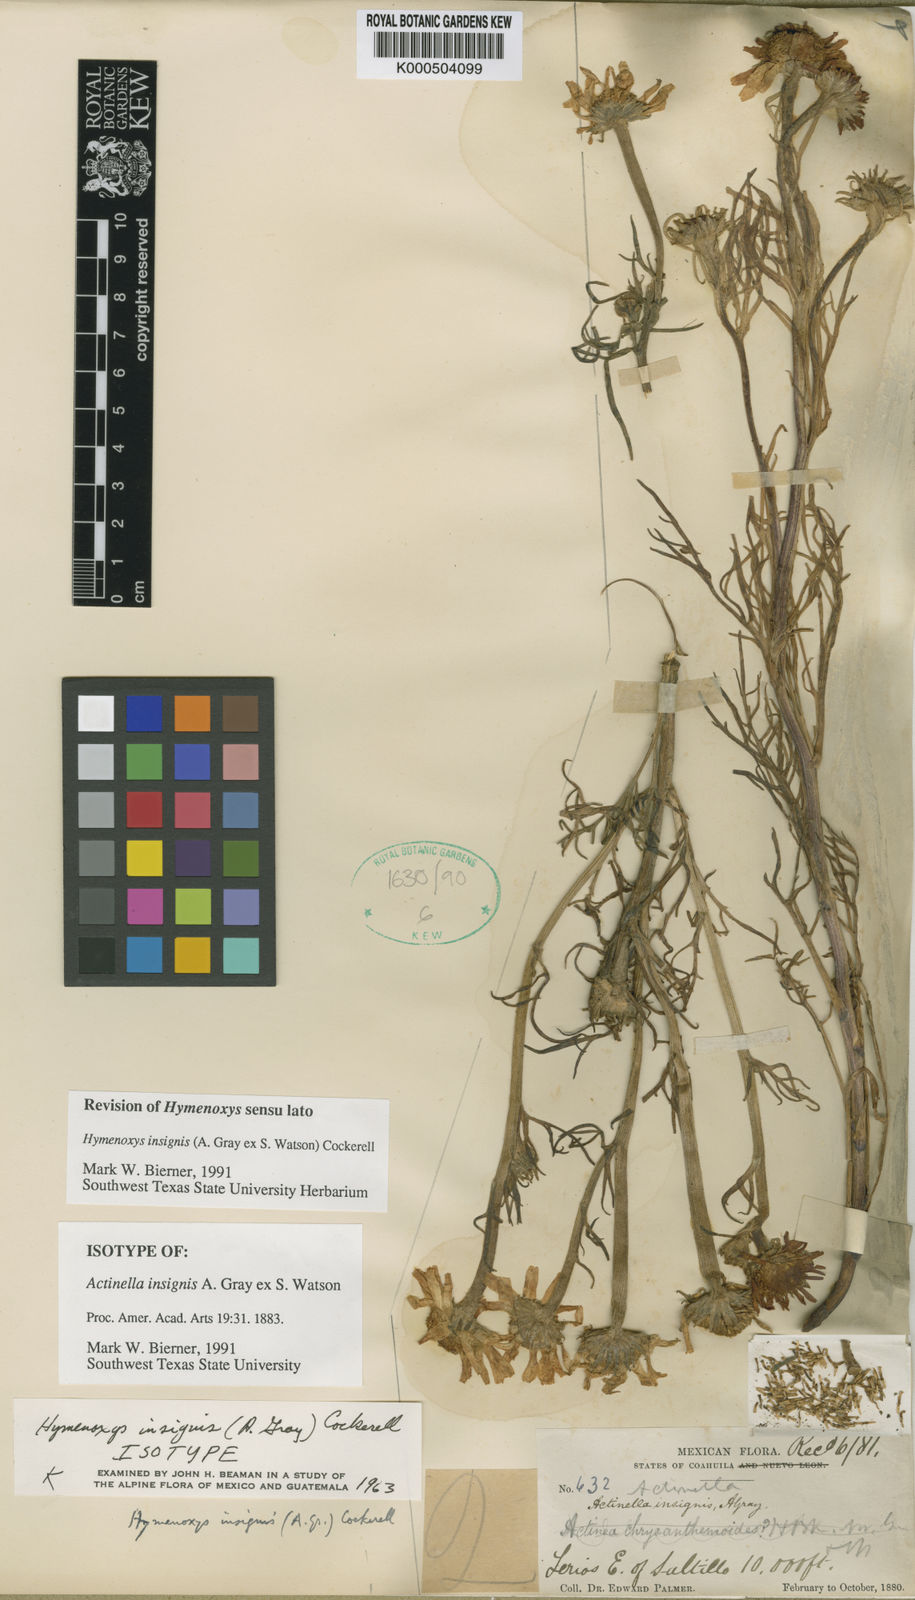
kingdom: Plantae
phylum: Tracheophyta
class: Magnoliopsida
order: Asterales
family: Asteraceae
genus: Hymenoxys
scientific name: Hymenoxys insignis
